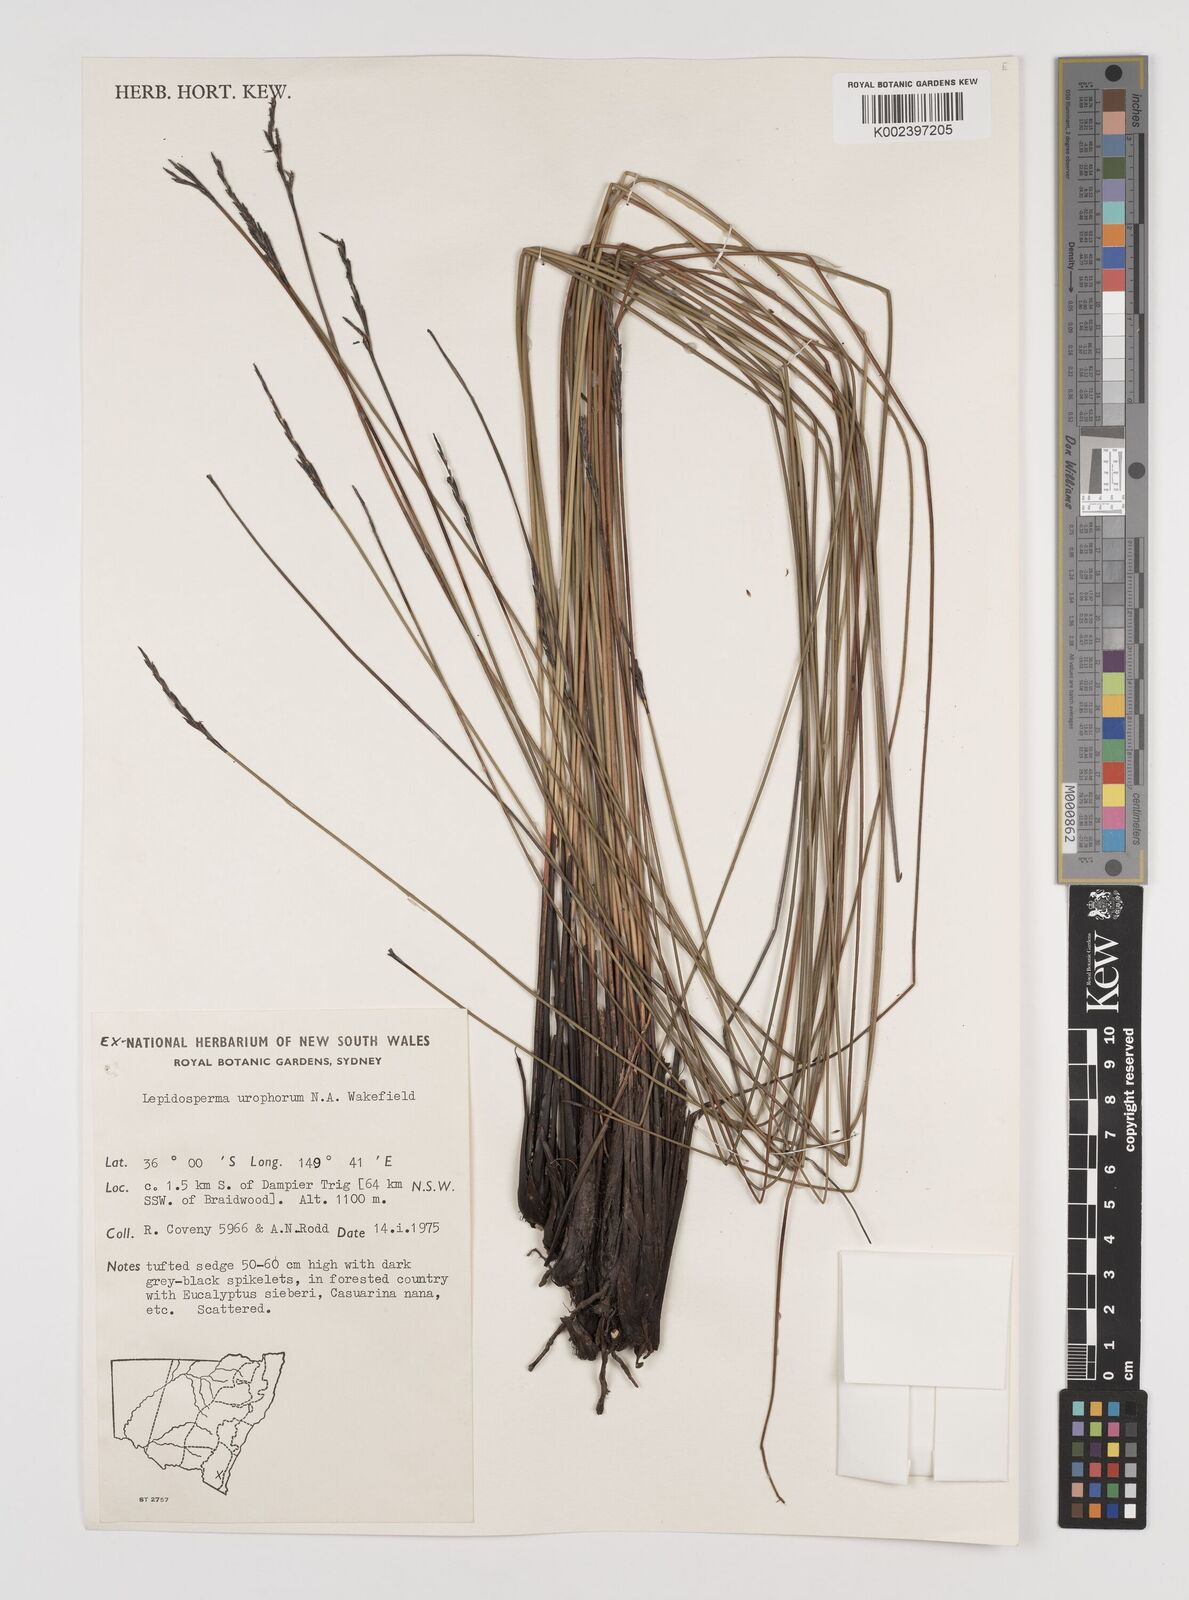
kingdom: Plantae
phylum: Tracheophyta
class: Liliopsida
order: Poales
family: Cyperaceae
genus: Lepidosperma
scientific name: Lepidosperma urophorum
